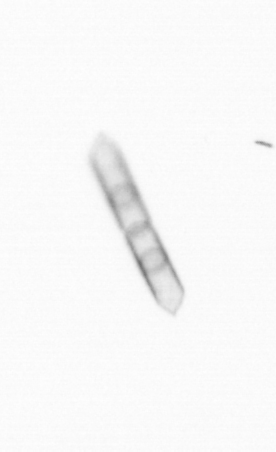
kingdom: Chromista
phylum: Ochrophyta
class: Bacillariophyceae
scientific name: Bacillariophyceae
